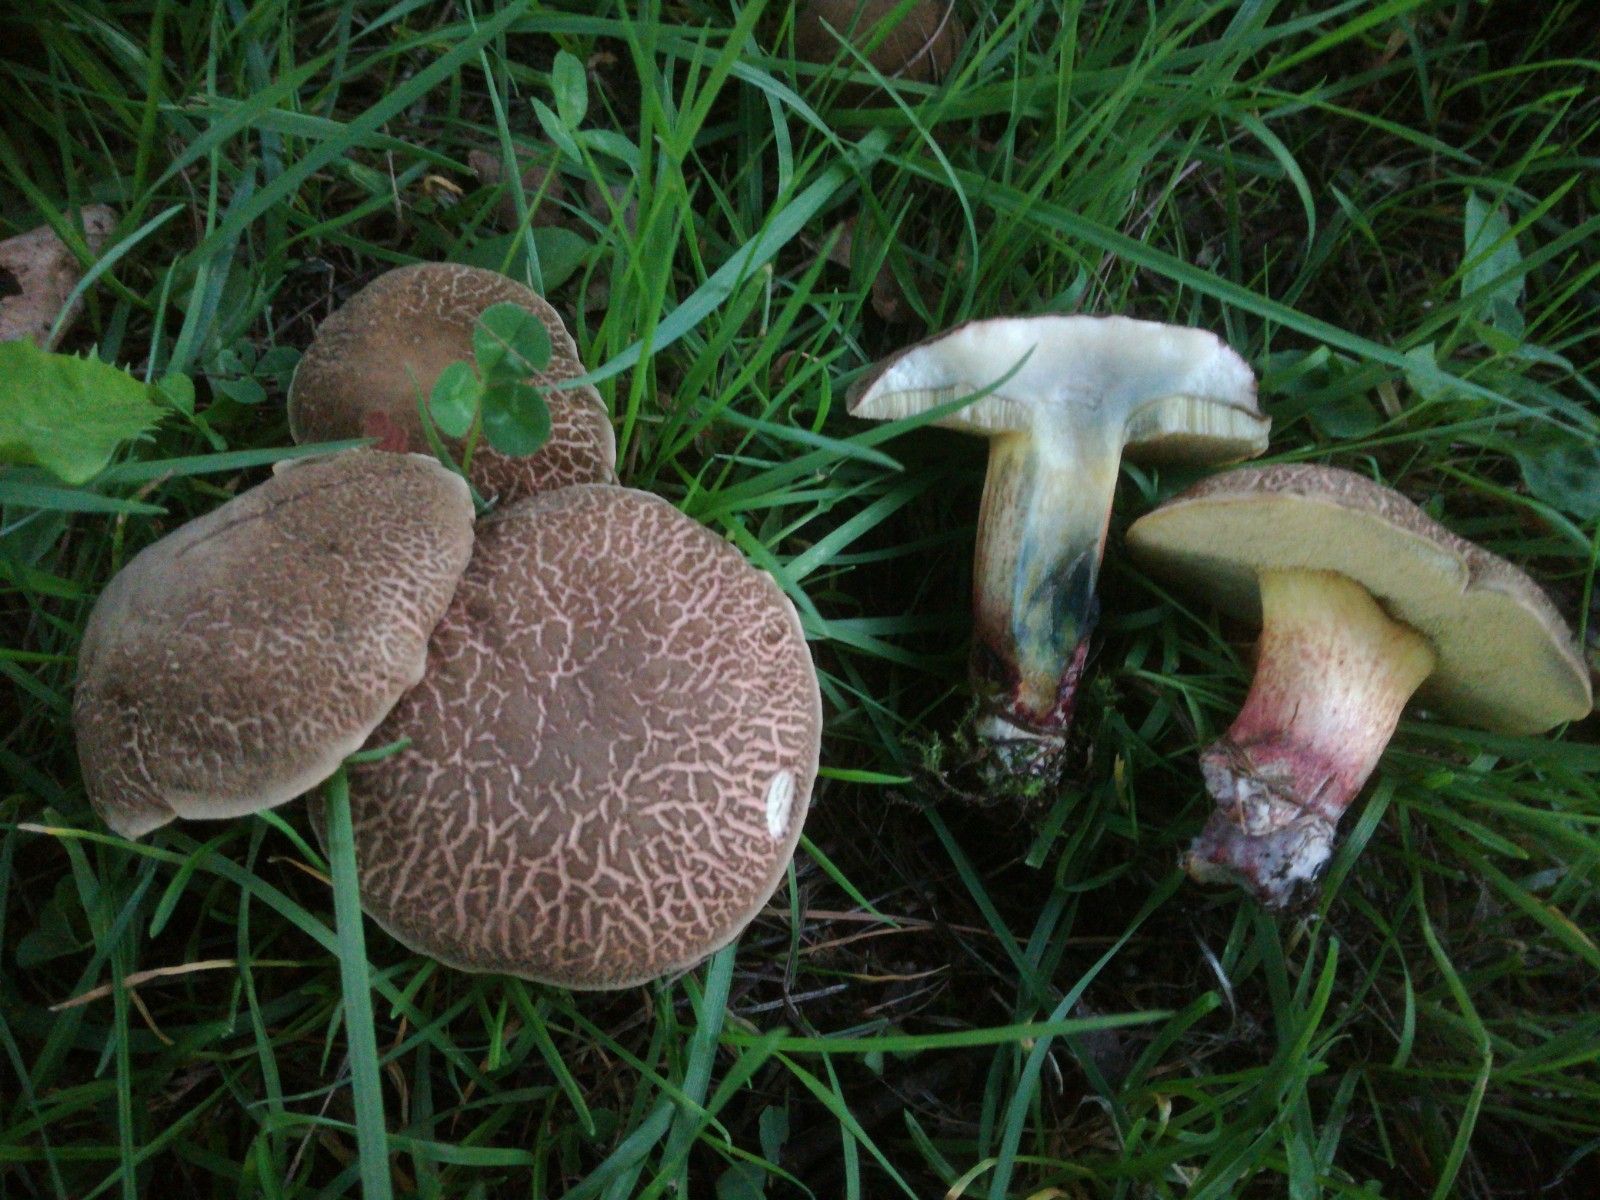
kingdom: Fungi
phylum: Basidiomycota
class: Agaricomycetes
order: Boletales
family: Boletaceae
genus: Xerocomellus
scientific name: Xerocomellus cisalpinus
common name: finsprukken rørhat
